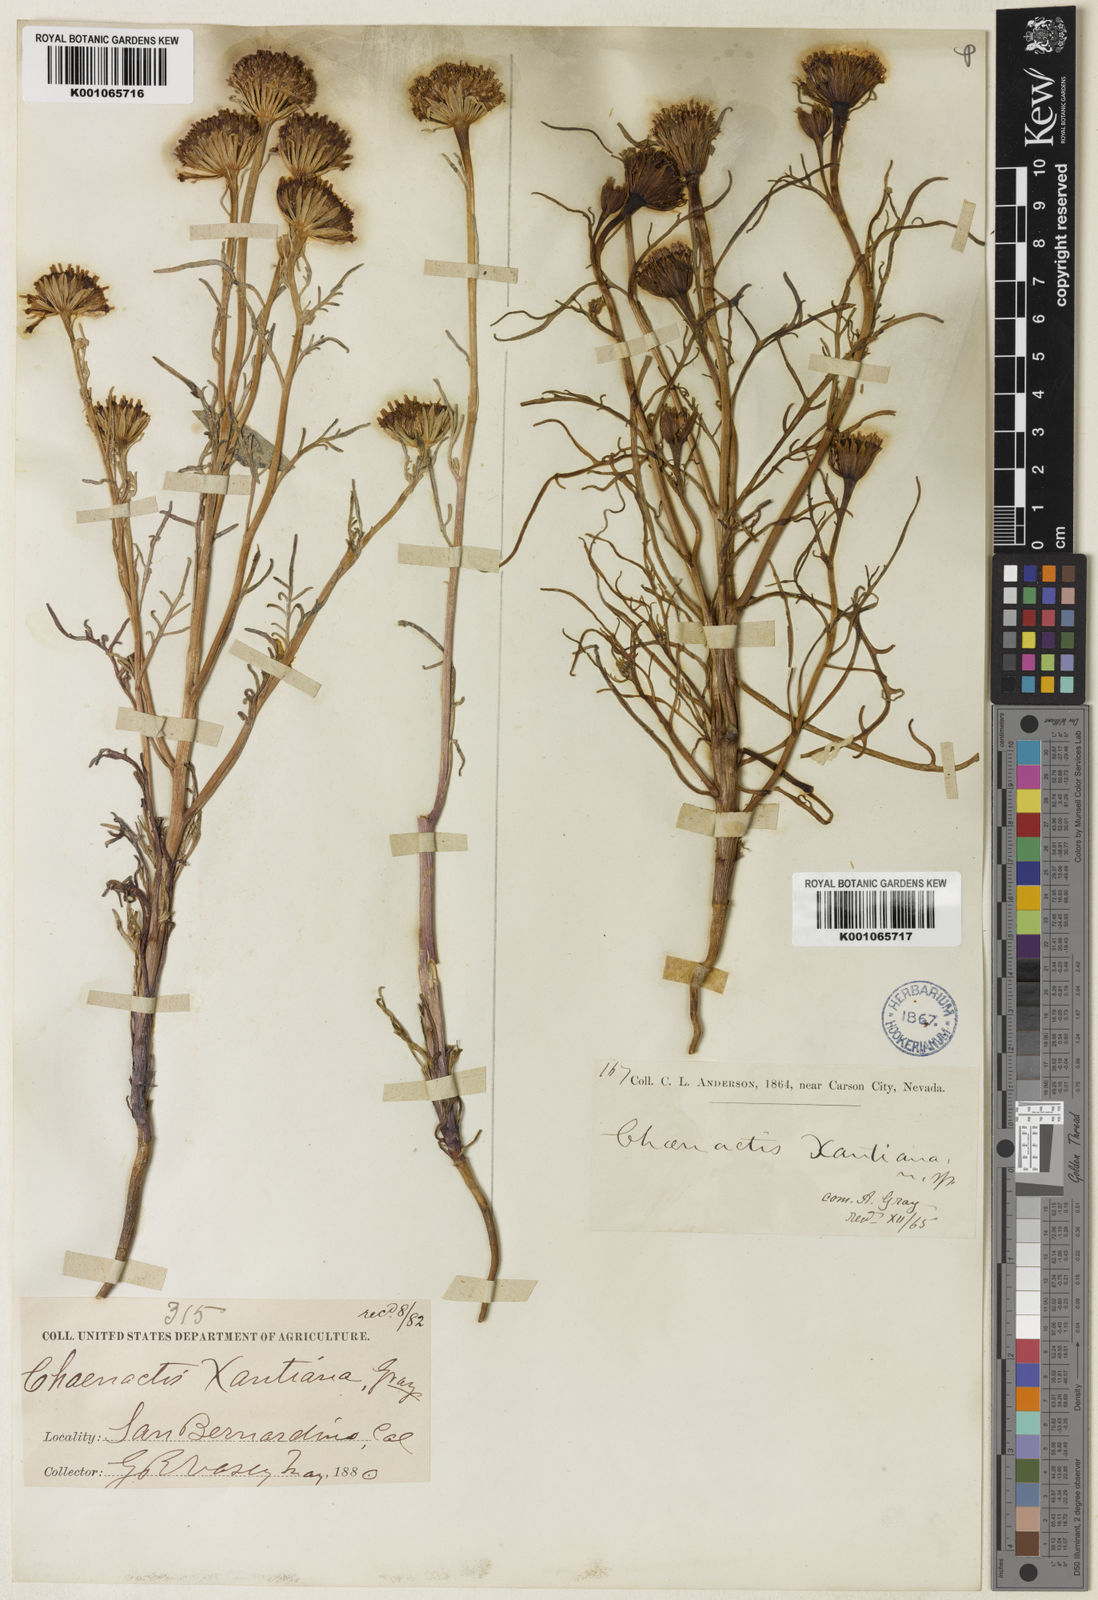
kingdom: Plantae
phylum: Tracheophyta
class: Magnoliopsida
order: Asterales
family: Asteraceae
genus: Chaenactis
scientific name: Chaenactis xantiana
